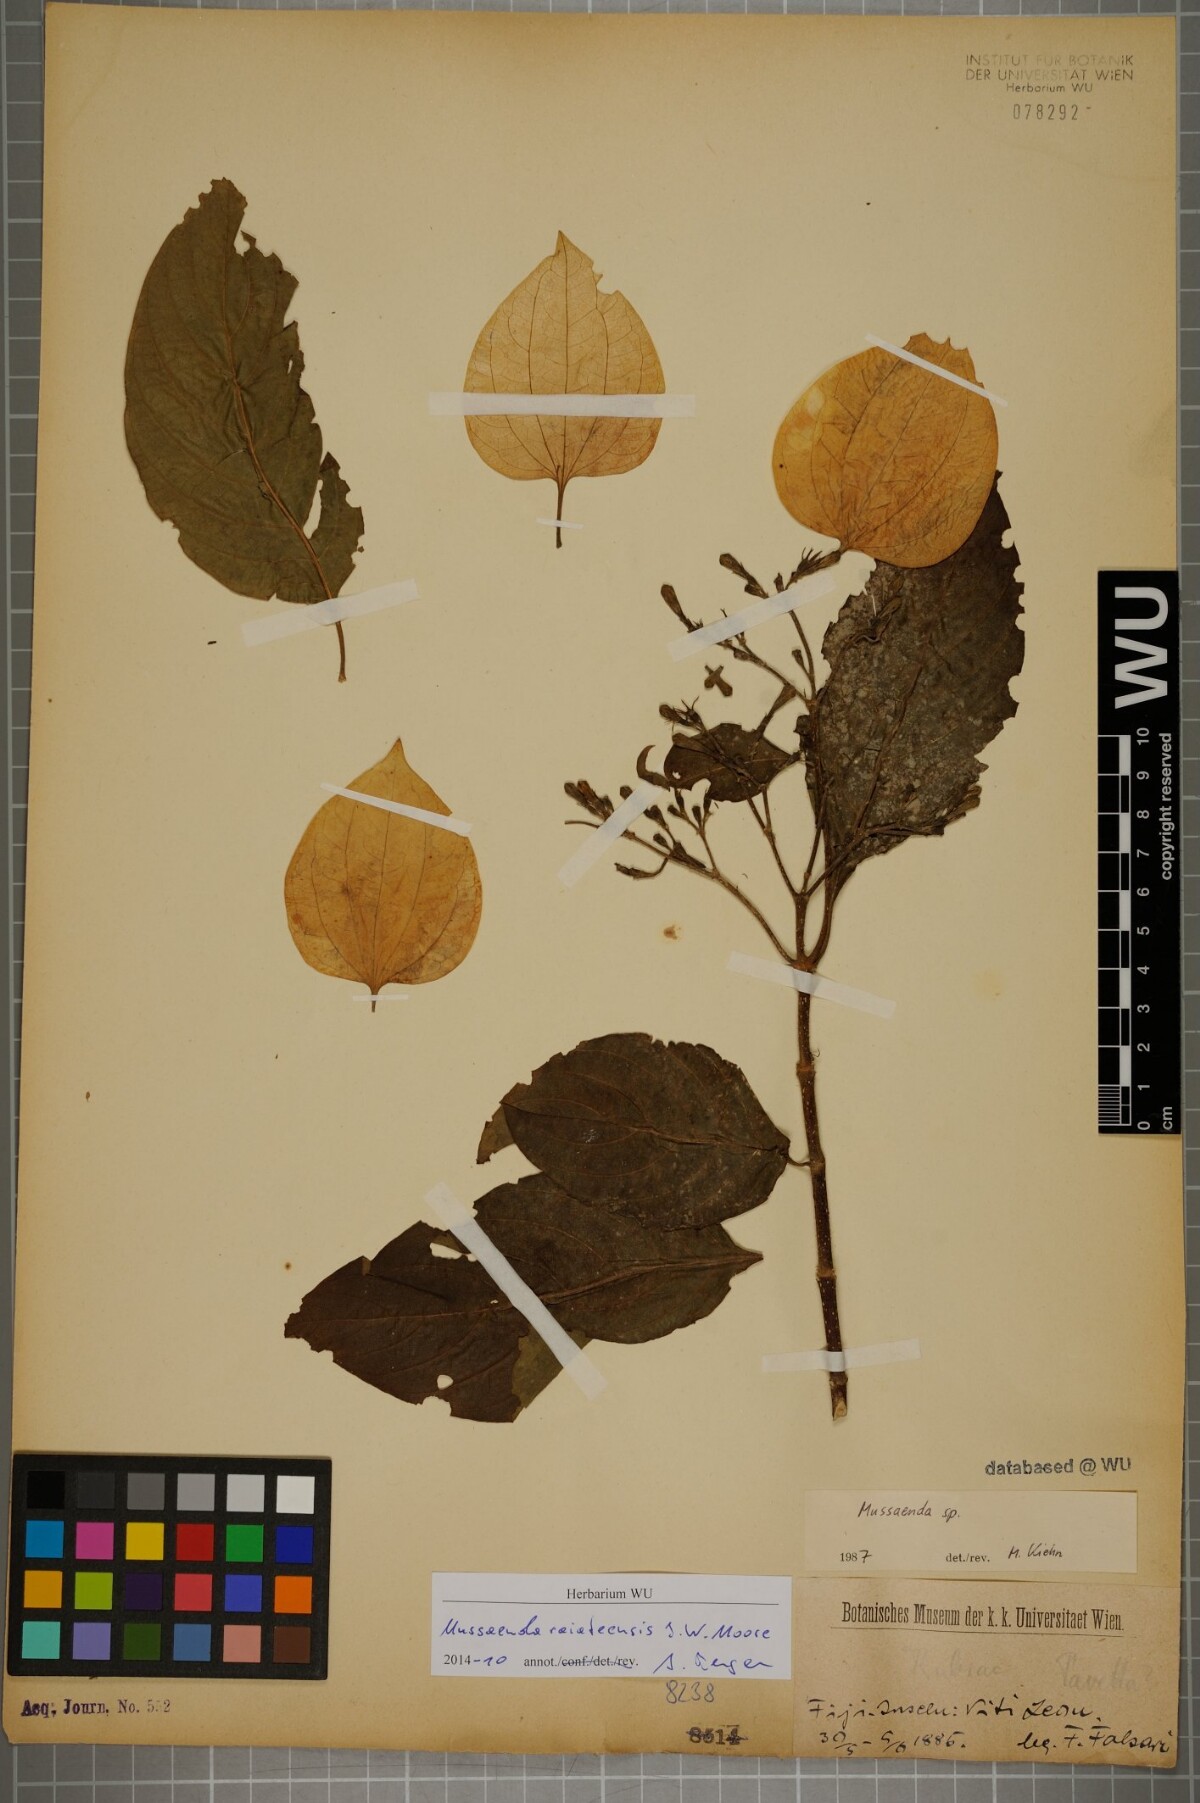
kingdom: Plantae
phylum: Tracheophyta
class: Magnoliopsida
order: Gentianales
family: Rubiaceae
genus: Mussaenda
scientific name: Mussaenda raiateensis
